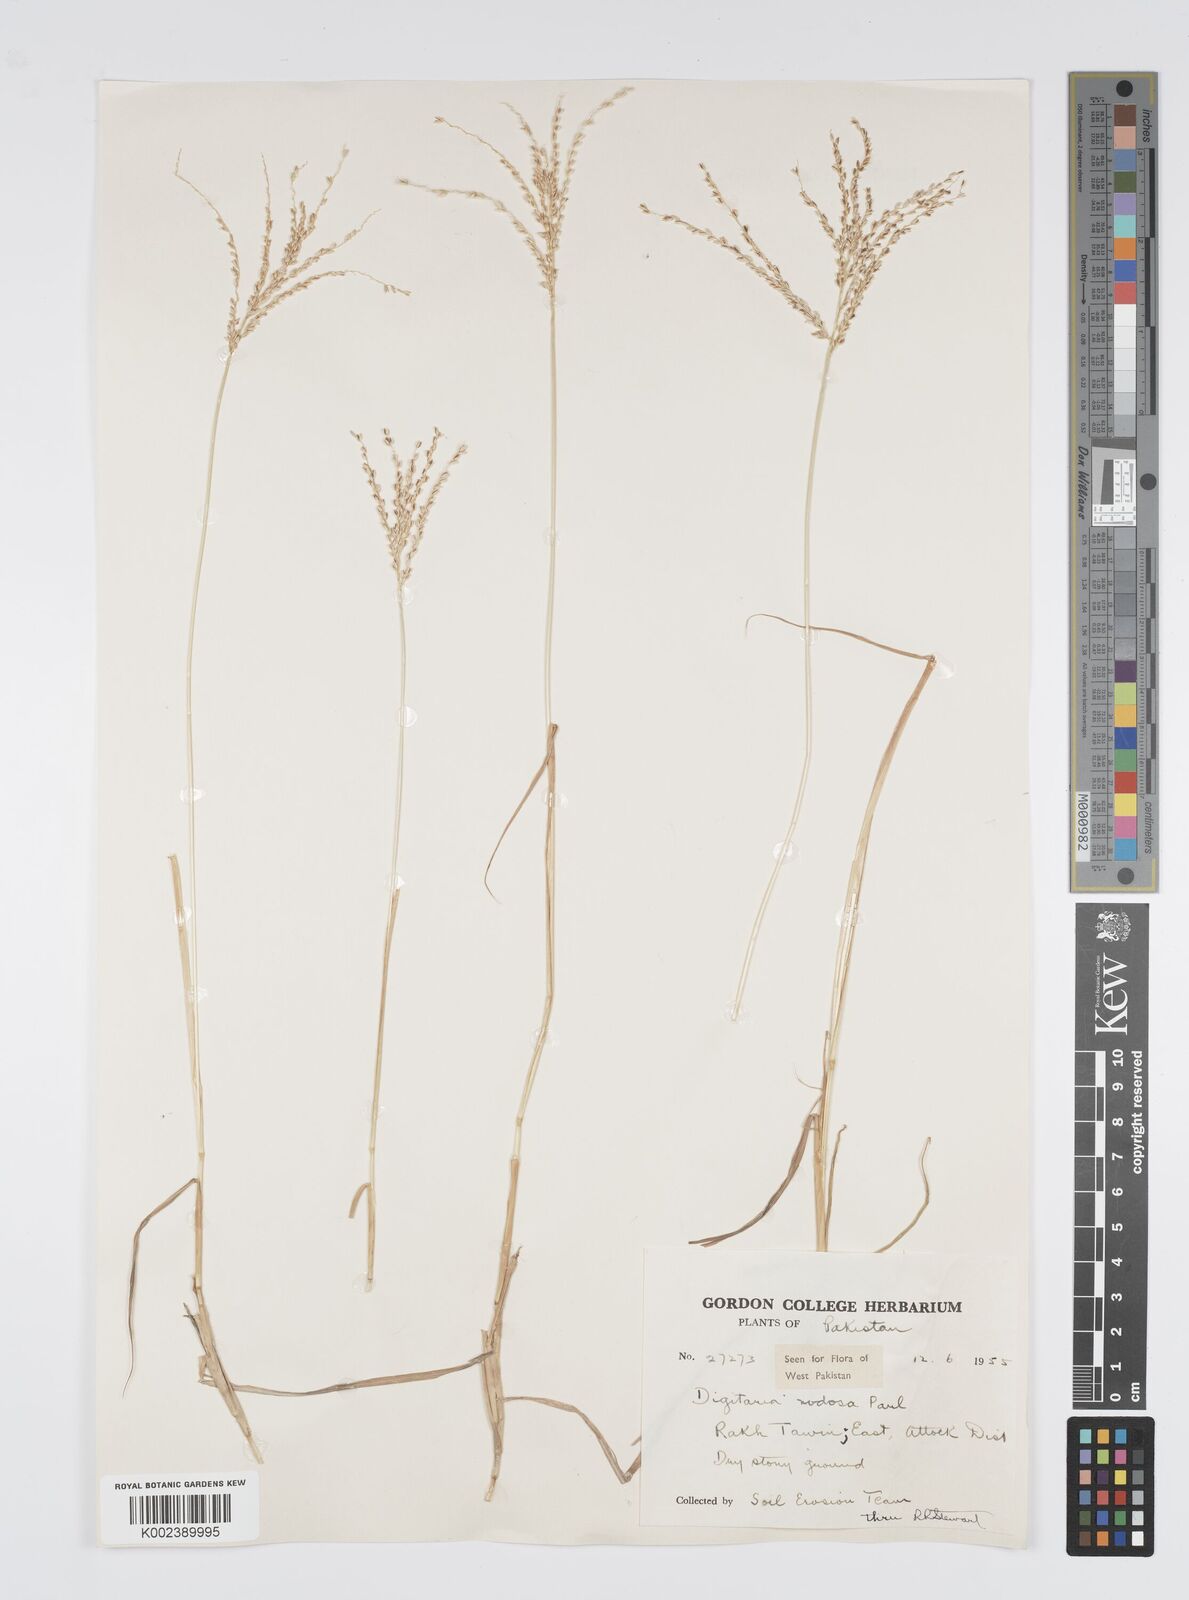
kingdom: Plantae
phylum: Tracheophyta
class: Liliopsida
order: Poales
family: Poaceae
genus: Digitaria
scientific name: Digitaria nodosa
